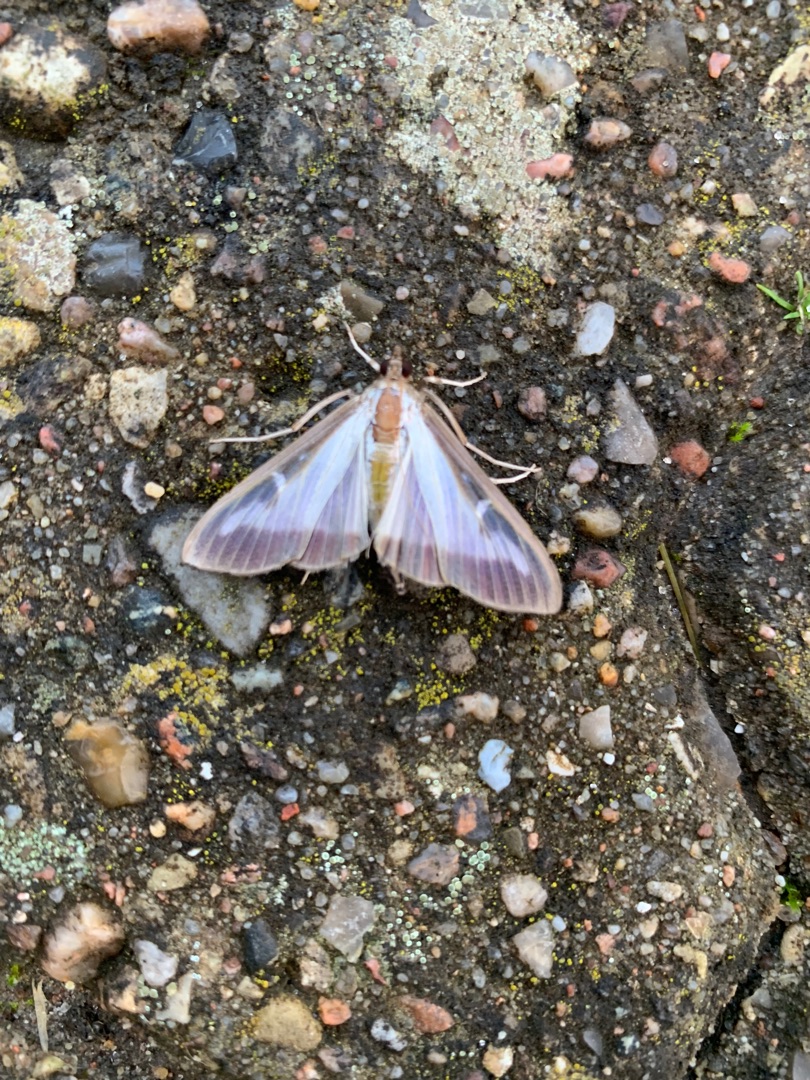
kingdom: Animalia
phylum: Arthropoda
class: Insecta
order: Lepidoptera
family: Crambidae
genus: Cydalima
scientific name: Cydalima perspectalis
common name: Buksbomhalvmøl
